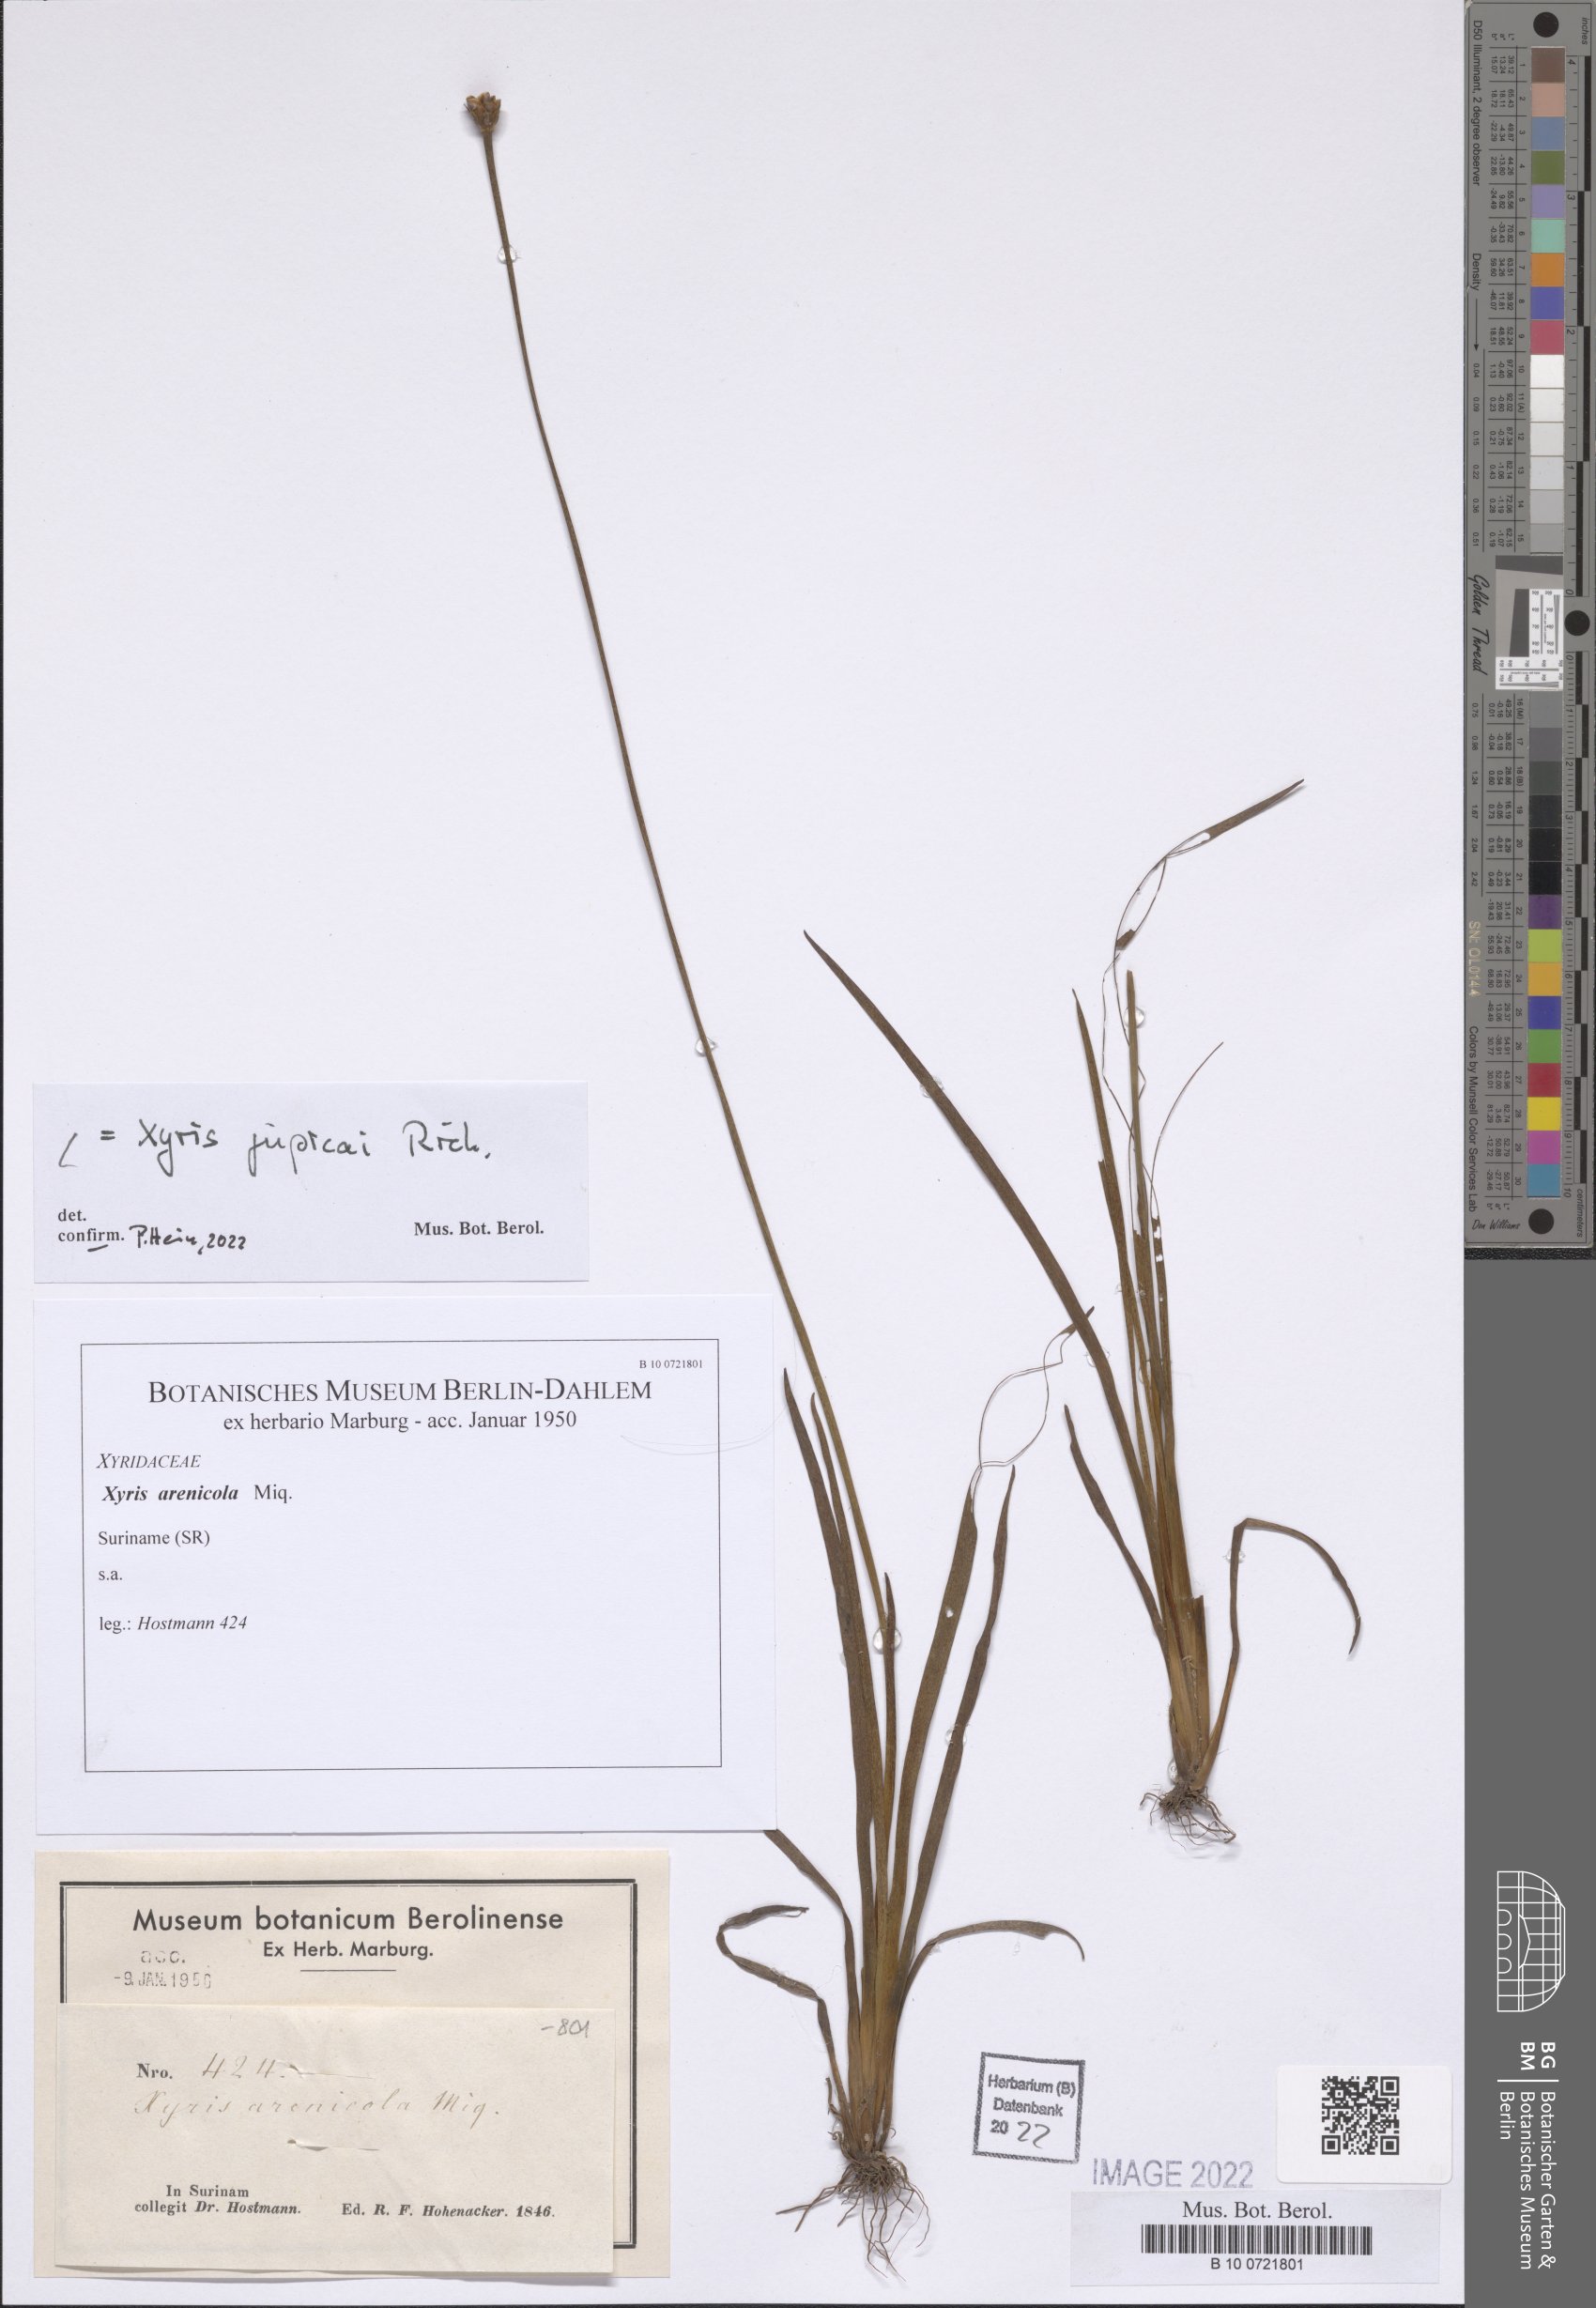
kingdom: Plantae
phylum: Tracheophyta
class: Liliopsida
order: Poales
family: Xyridaceae
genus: Xyris
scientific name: Xyris jupicai
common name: Richard's yelloweyed grass
